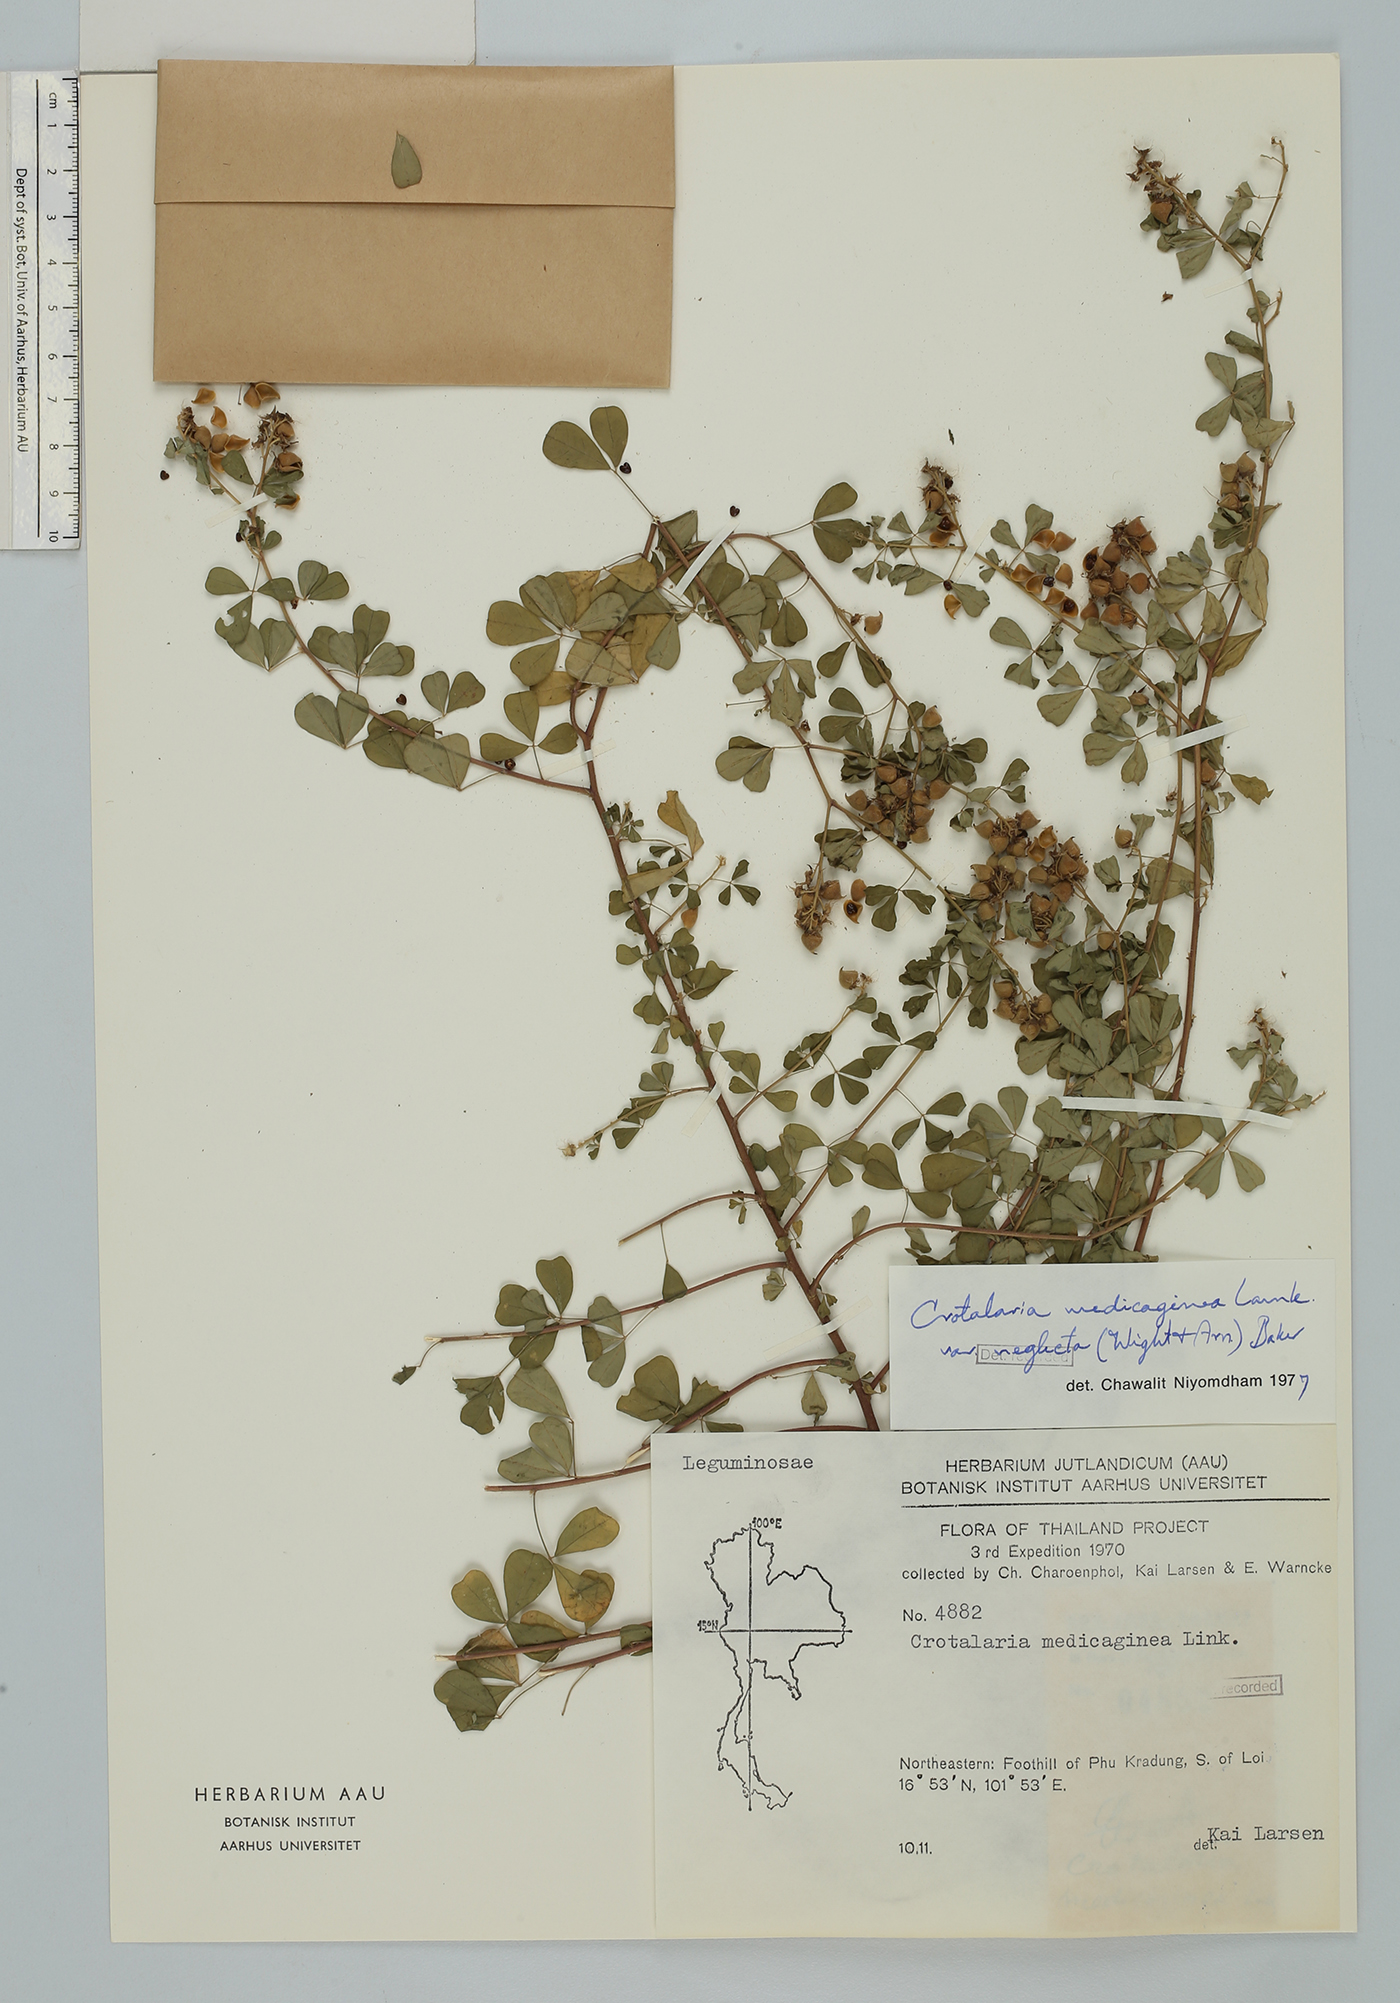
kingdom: Plantae
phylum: Tracheophyta
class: Magnoliopsida
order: Fabales
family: Fabaceae
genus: Crotalaria
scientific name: Crotalaria medicaginea
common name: Trefoil rattlepod
